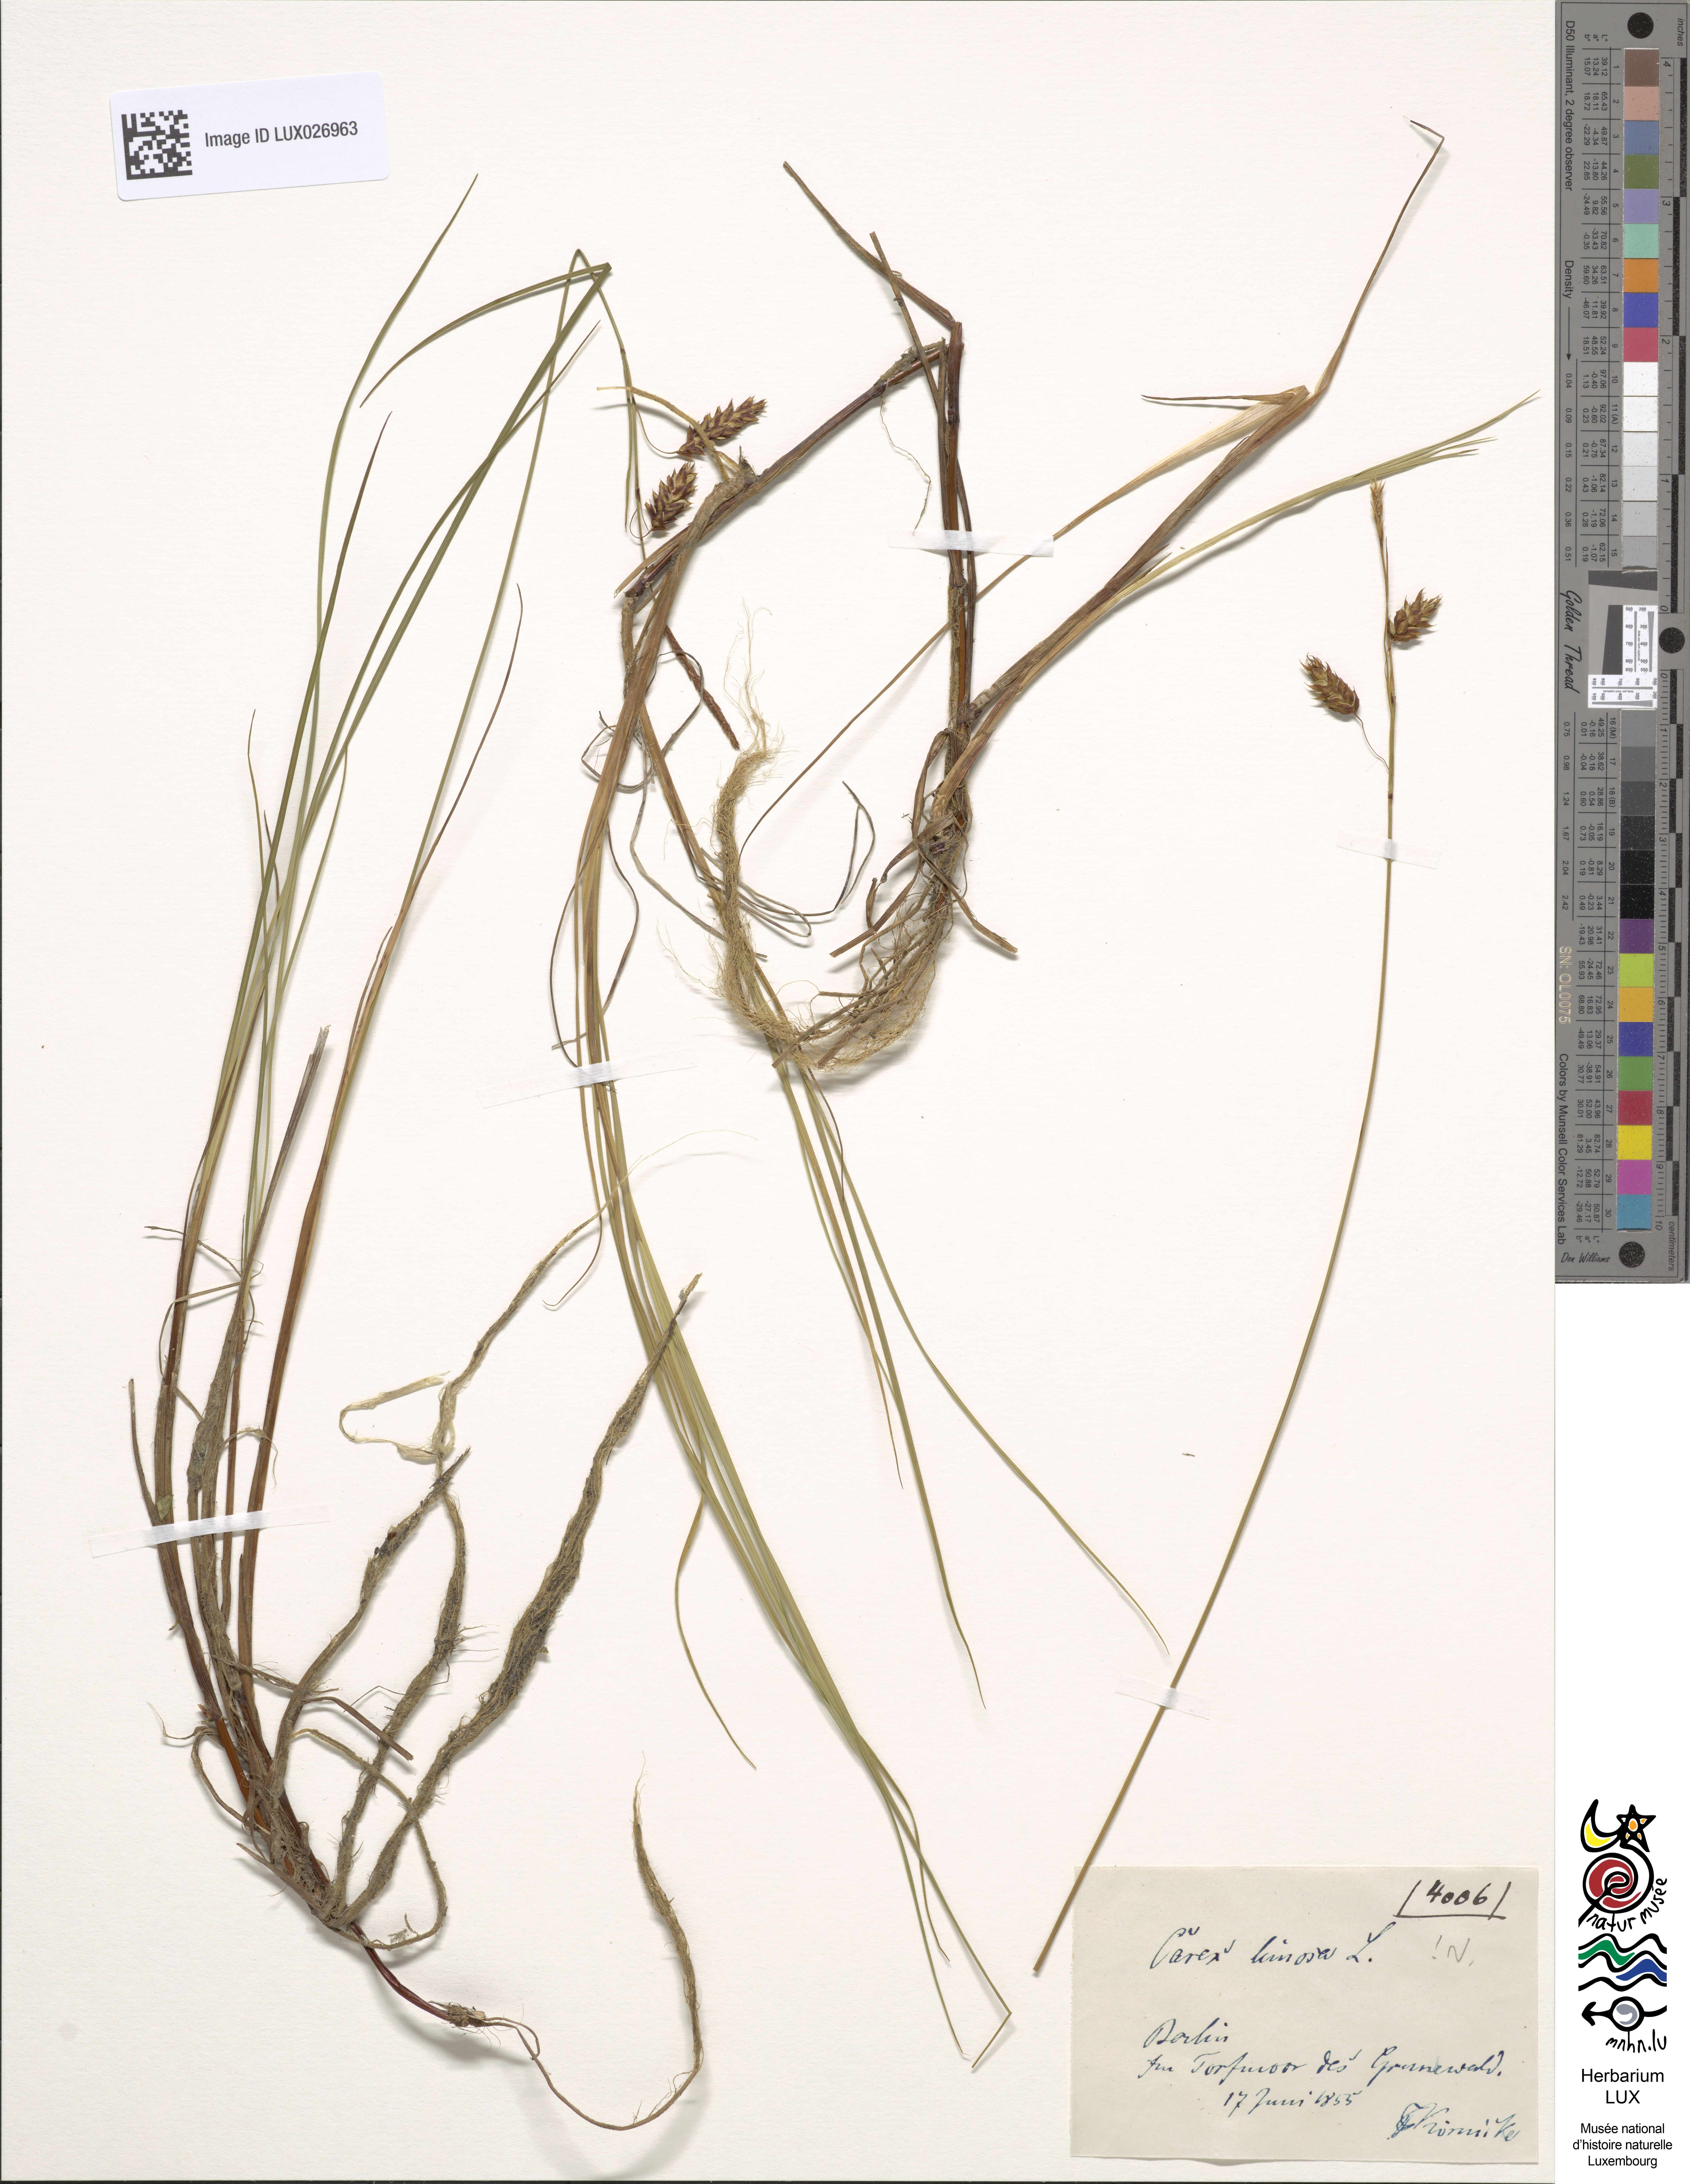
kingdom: Plantae
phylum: Tracheophyta
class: Liliopsida
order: Poales
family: Cyperaceae
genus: Carex
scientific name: Carex limosa
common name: Bog sedge
